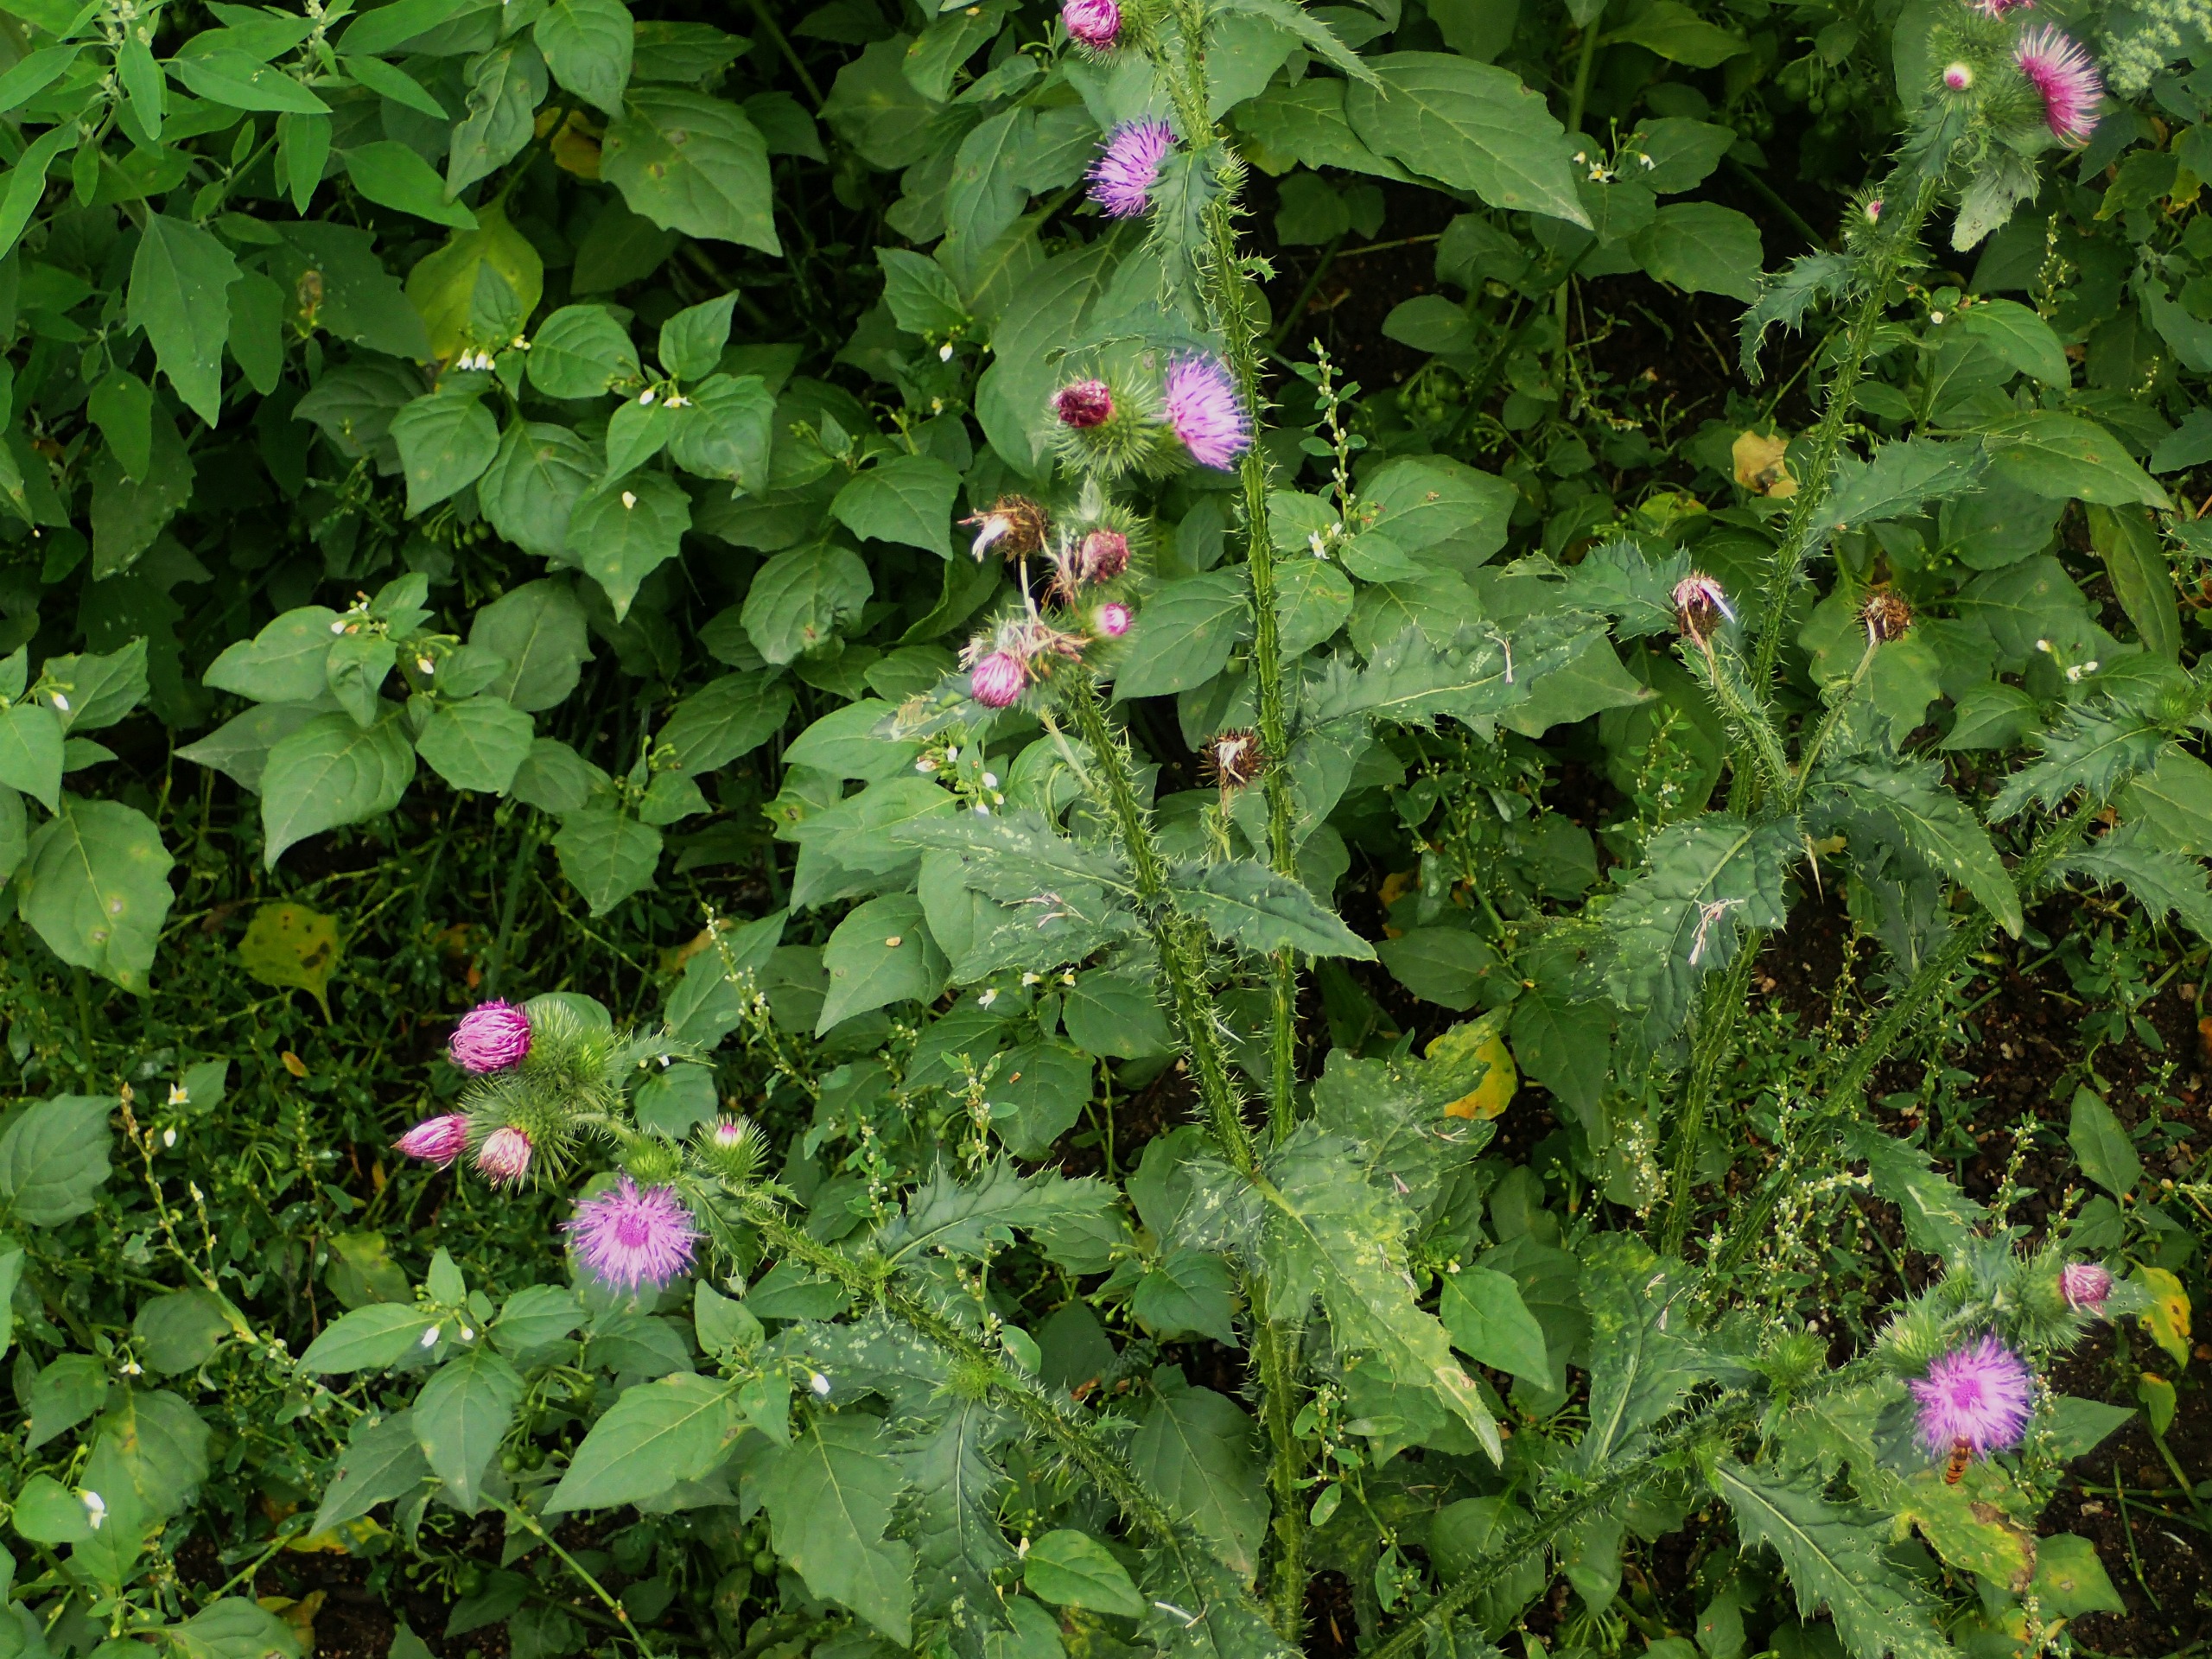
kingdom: Plantae
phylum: Tracheophyta
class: Magnoliopsida
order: Asterales
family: Asteraceae
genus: Carduus
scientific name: Carduus crispus
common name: Kruset tidsel
